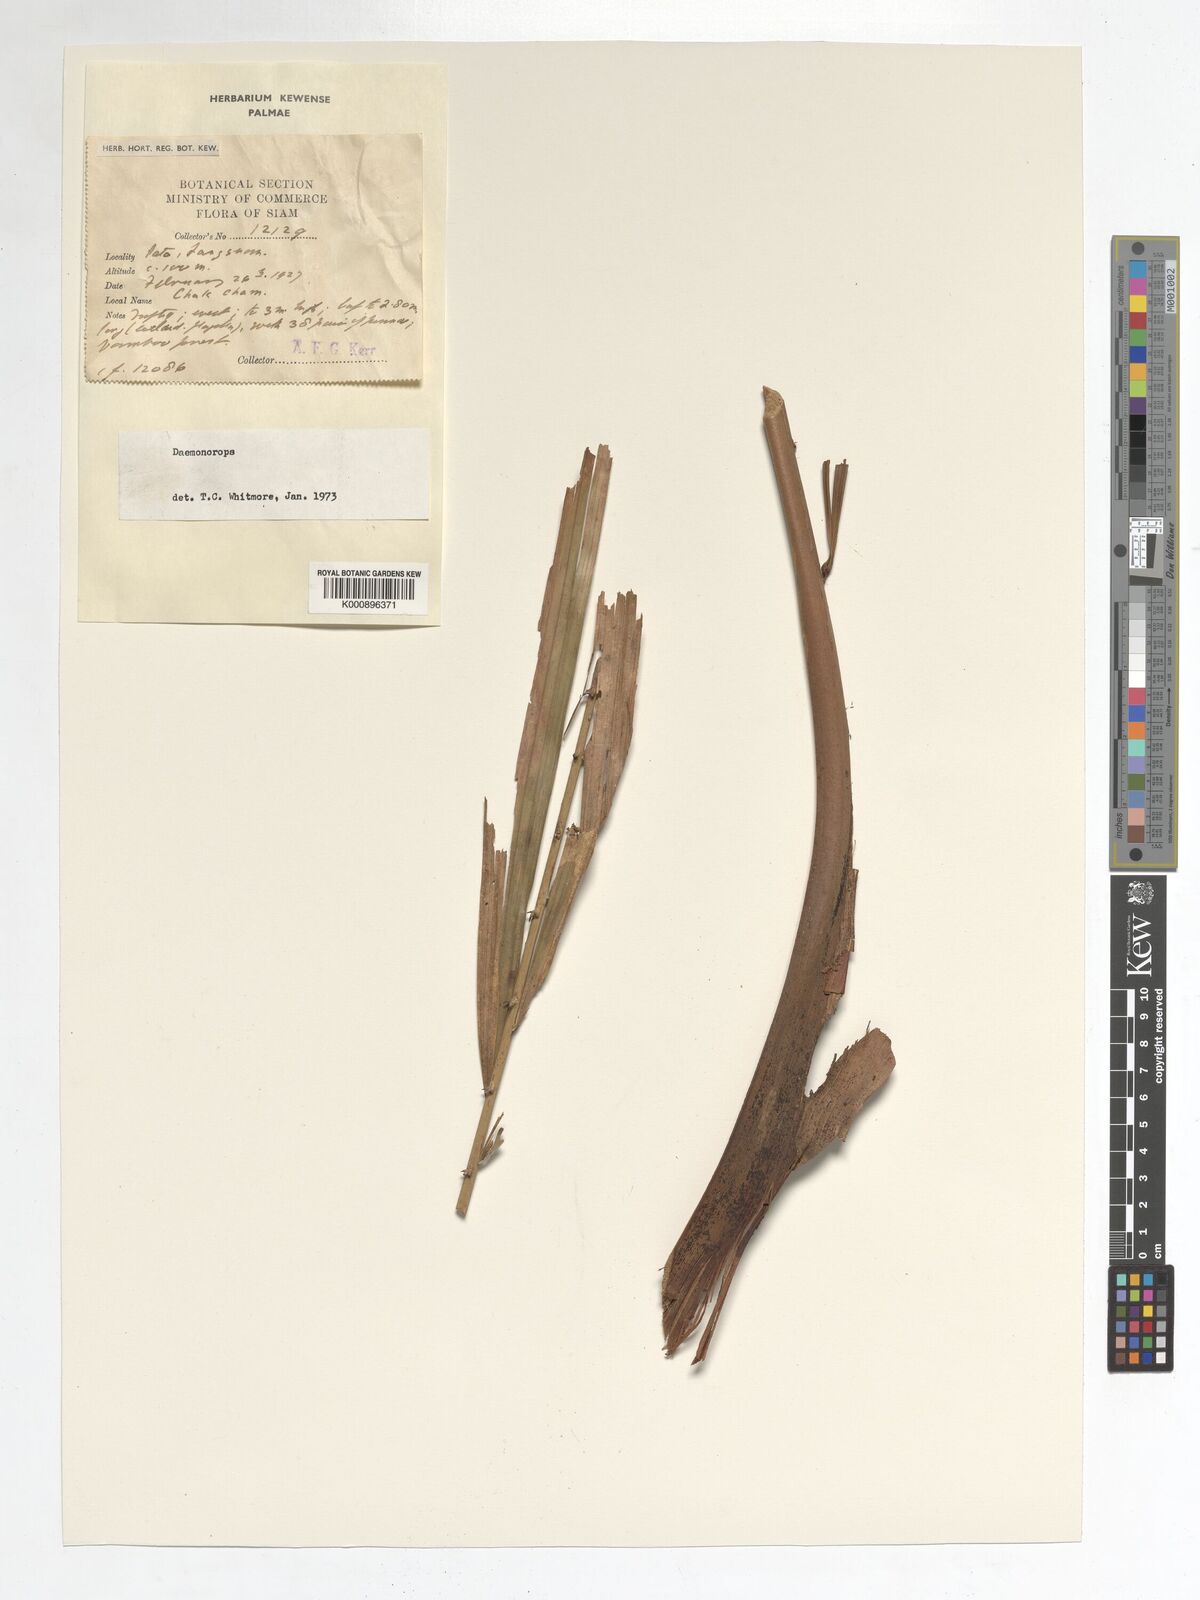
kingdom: Plantae
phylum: Tracheophyta
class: Liliopsida
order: Arecales
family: Arecaceae
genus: Daemonorops
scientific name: Daemonorops
